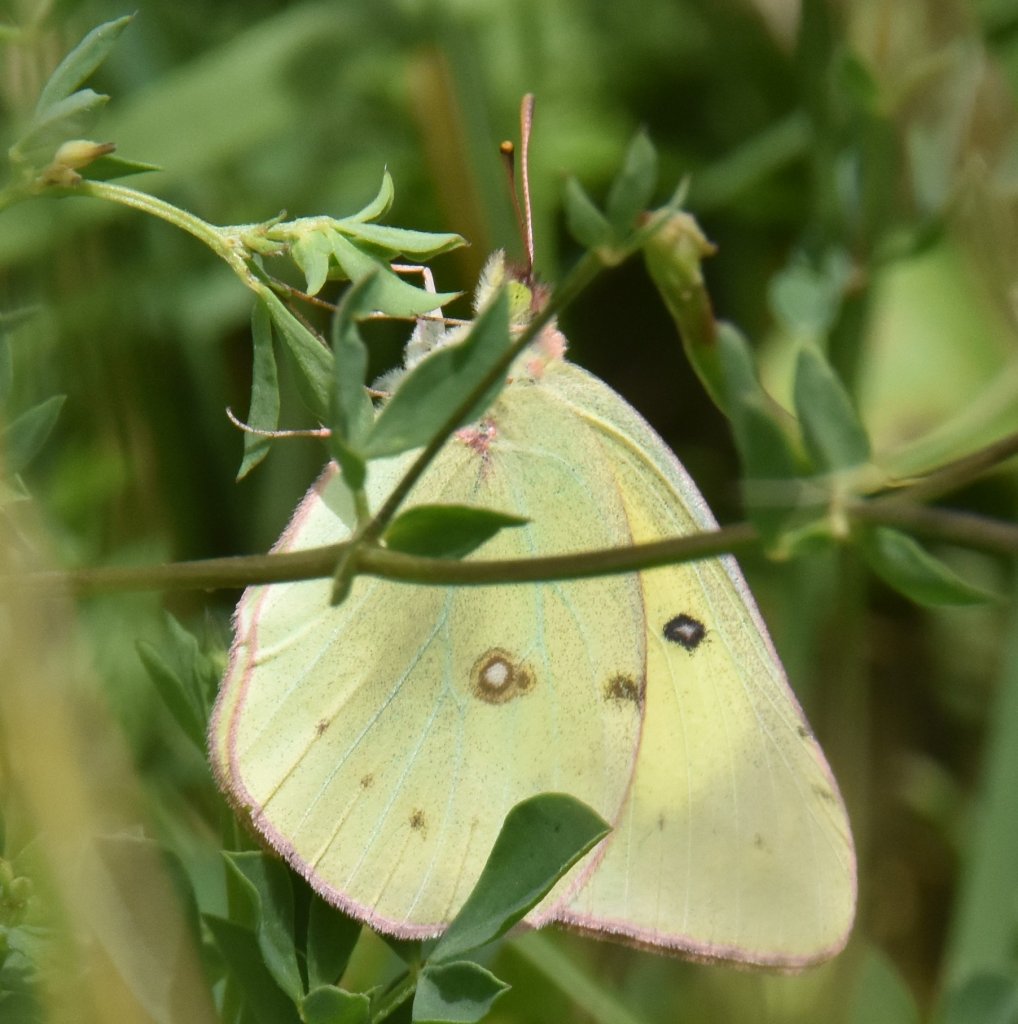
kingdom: Animalia
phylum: Arthropoda
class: Insecta
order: Lepidoptera
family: Pieridae
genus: Colias
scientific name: Colias
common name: Clouded Yellows
